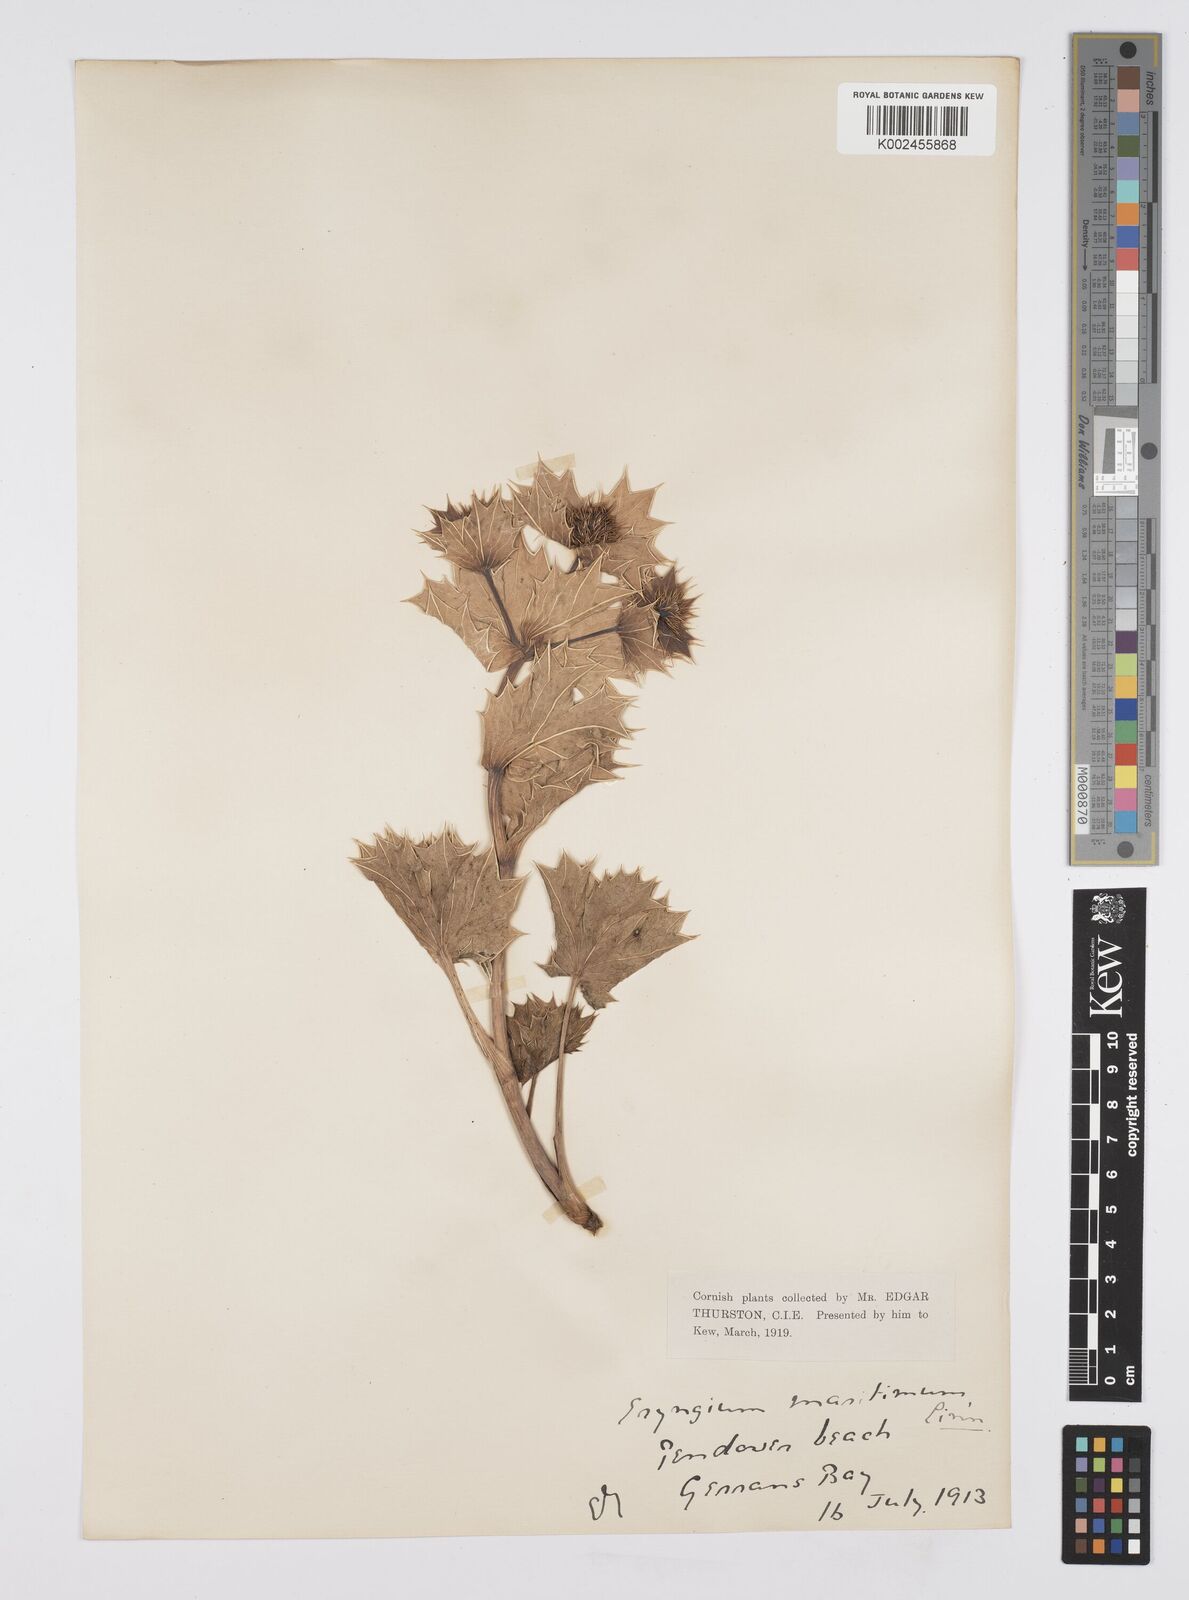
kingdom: Plantae
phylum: Tracheophyta
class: Magnoliopsida
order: Apiales
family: Apiaceae
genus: Eryngium
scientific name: Eryngium maritimum
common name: Sea-holly
